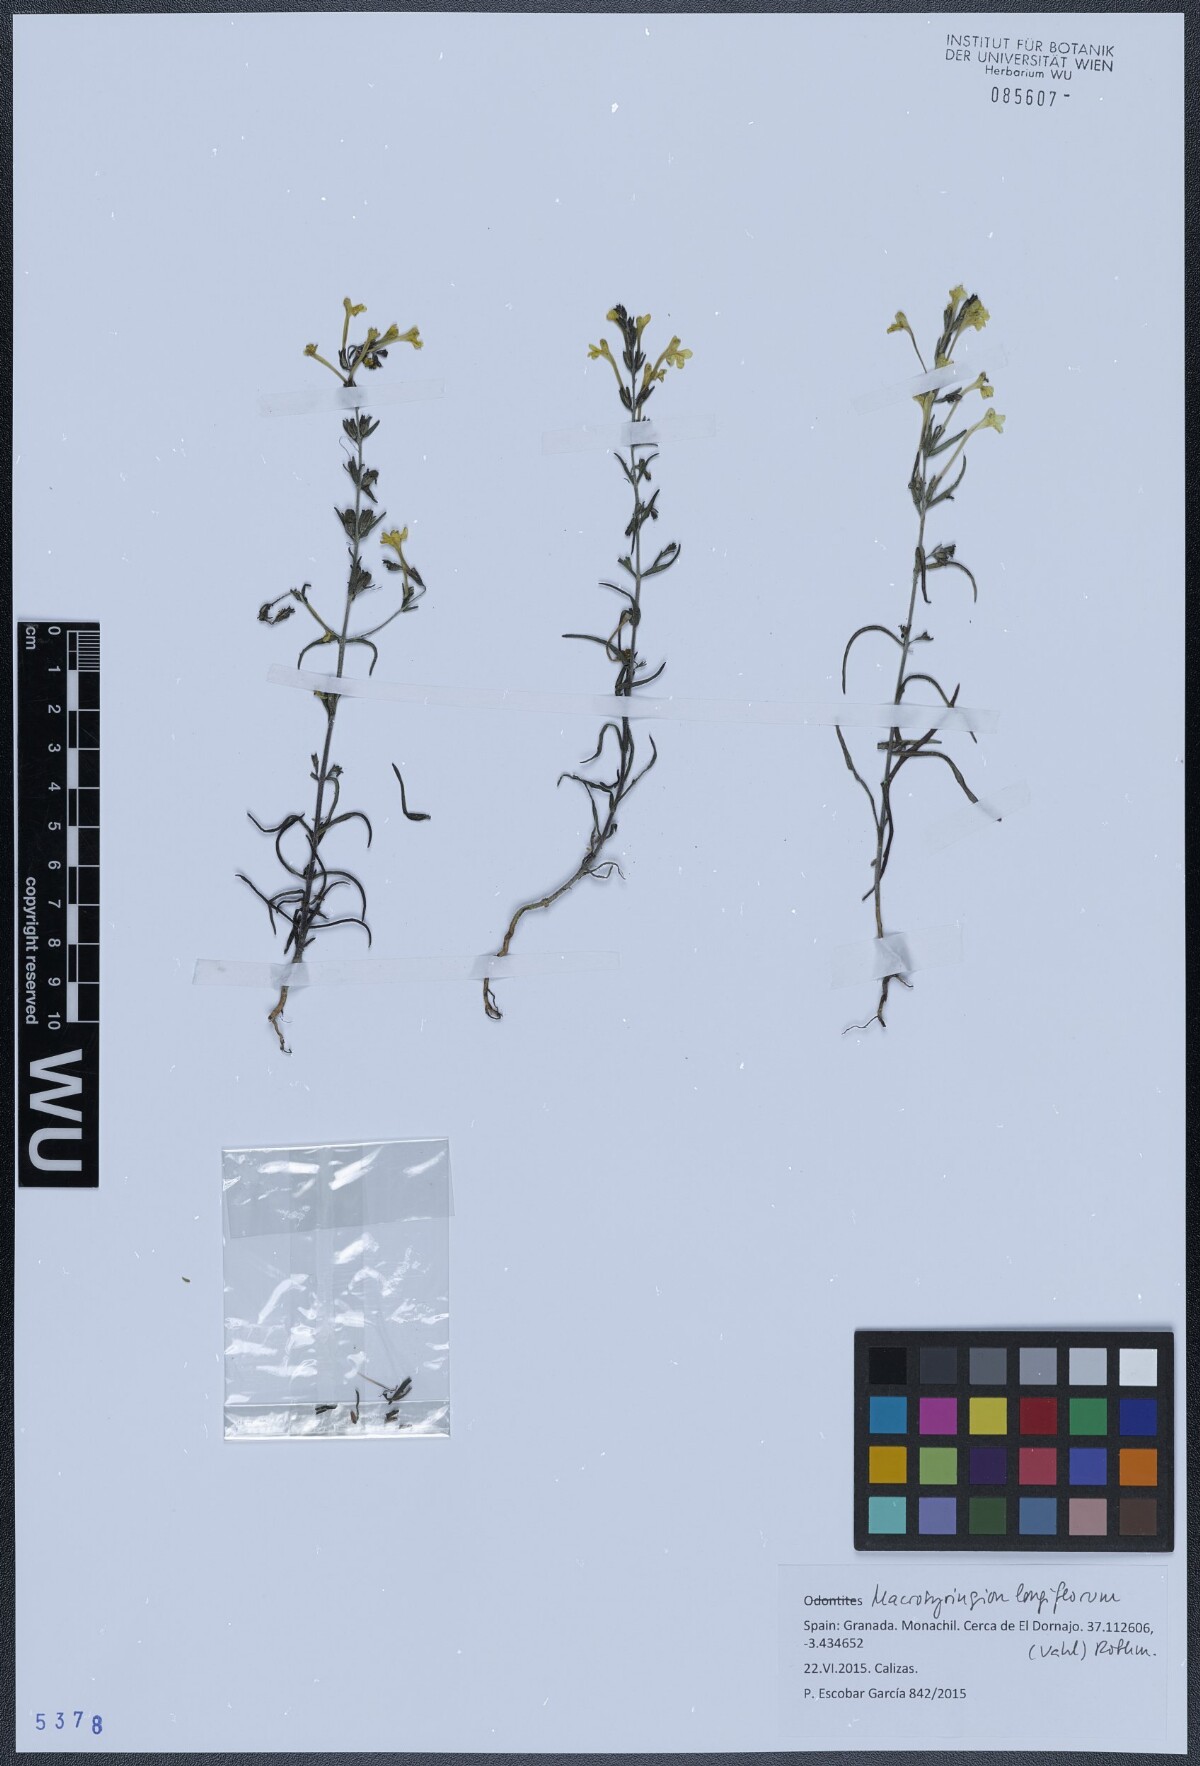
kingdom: Plantae
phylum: Tracheophyta
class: Magnoliopsida
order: Lamiales
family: Orobanchaceae
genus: Odontites
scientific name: Odontites longiflorus
